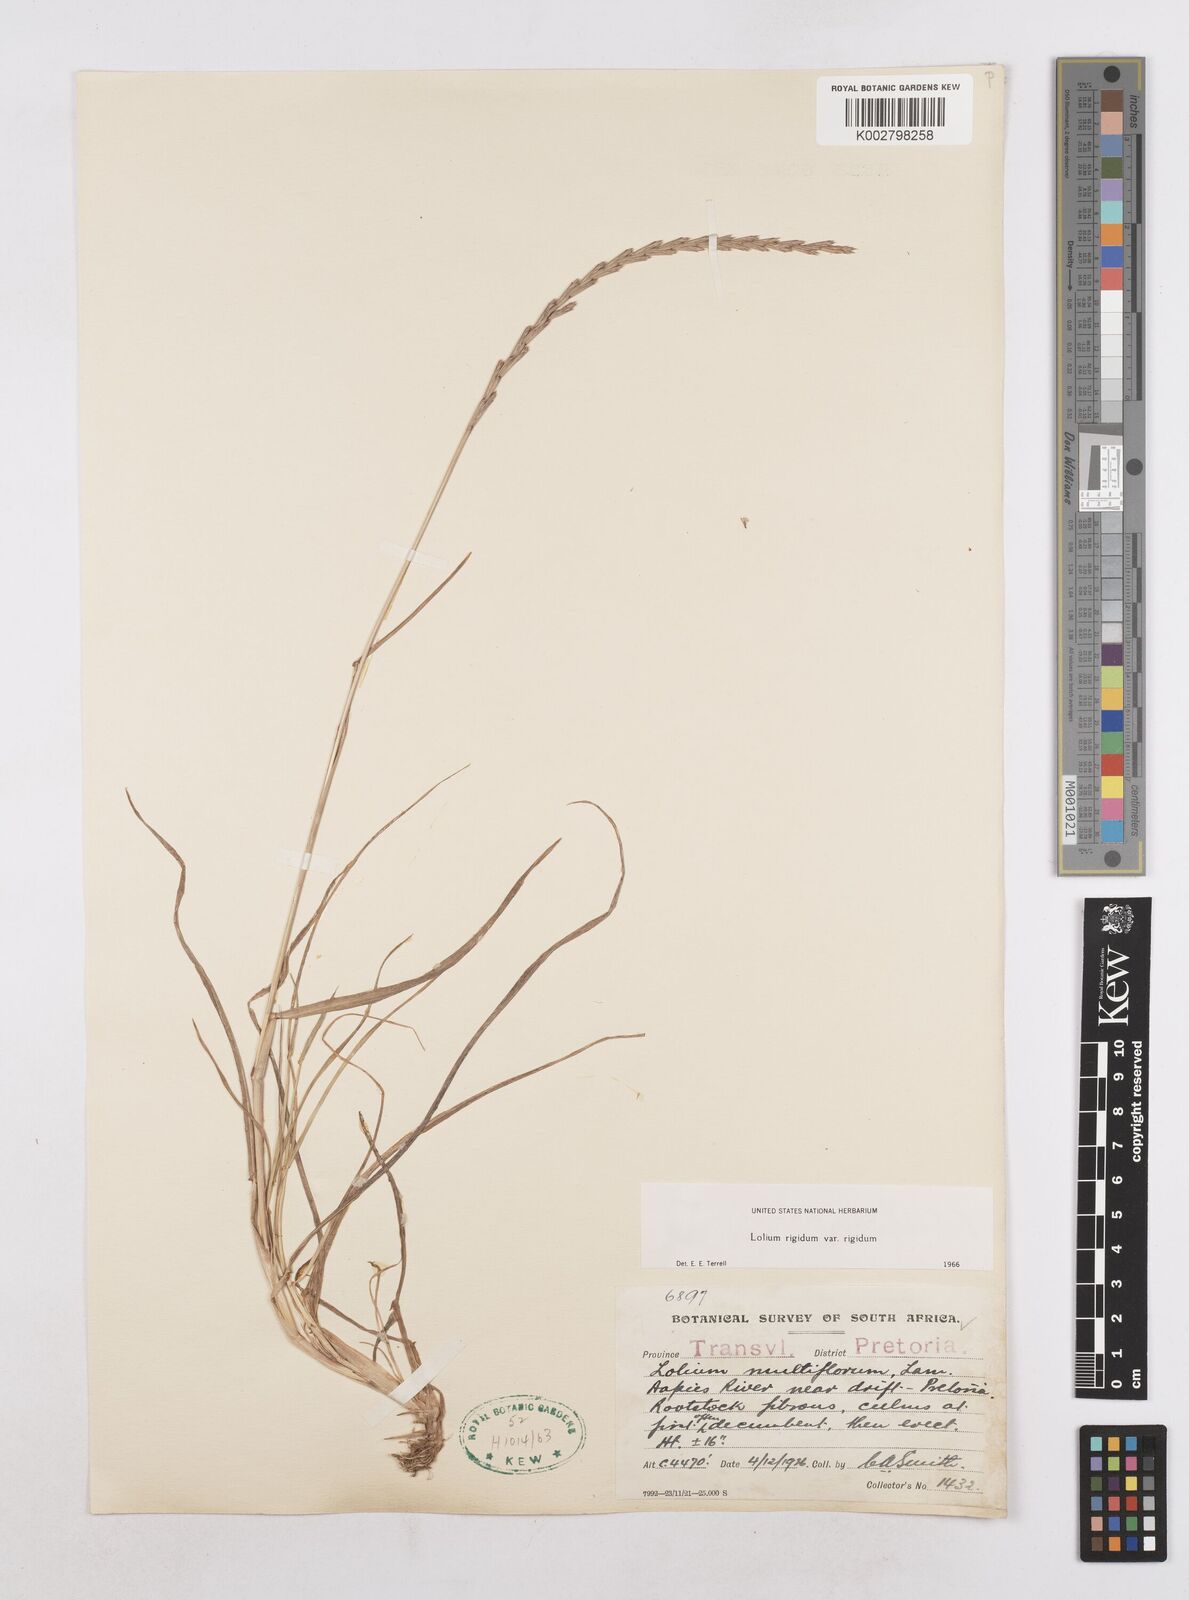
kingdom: Plantae
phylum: Tracheophyta
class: Liliopsida
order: Poales
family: Poaceae
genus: Lolium
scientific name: Lolium rigidum
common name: Wimmera ryegrass
